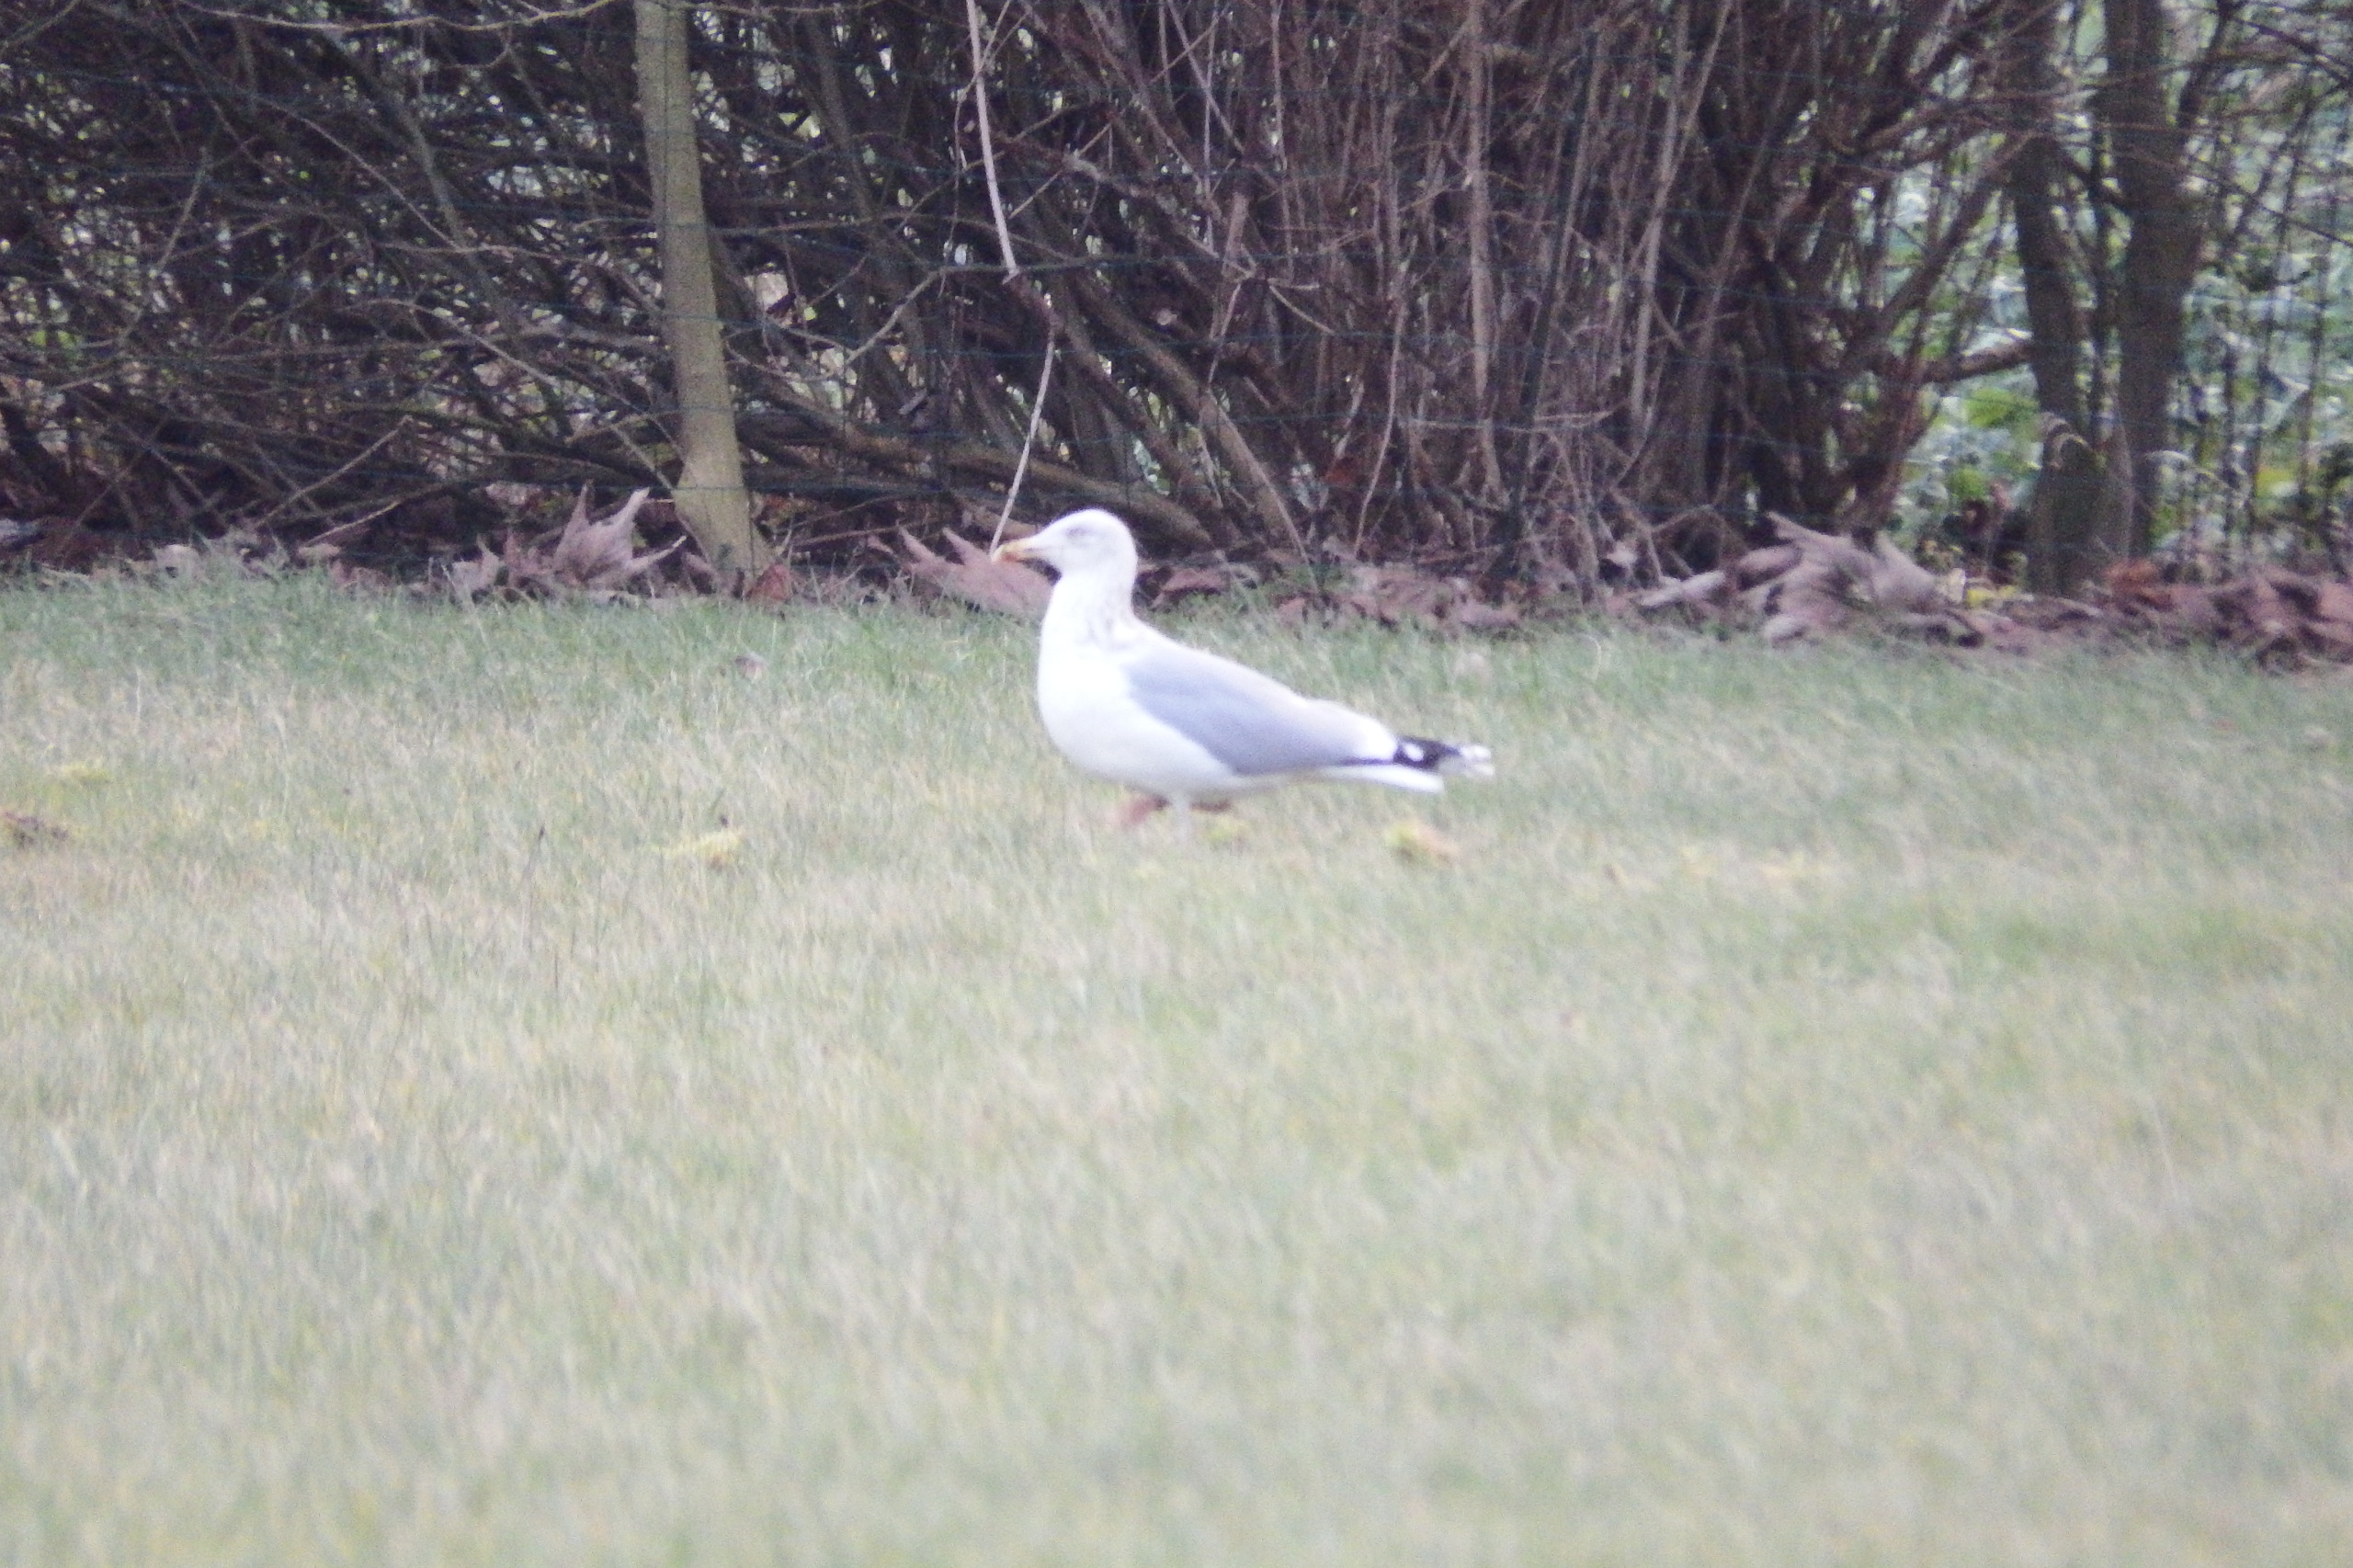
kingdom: Animalia
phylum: Chordata
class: Aves
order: Charadriiformes
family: Laridae
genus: Larus
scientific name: Larus argentatus
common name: Sølvmåge
